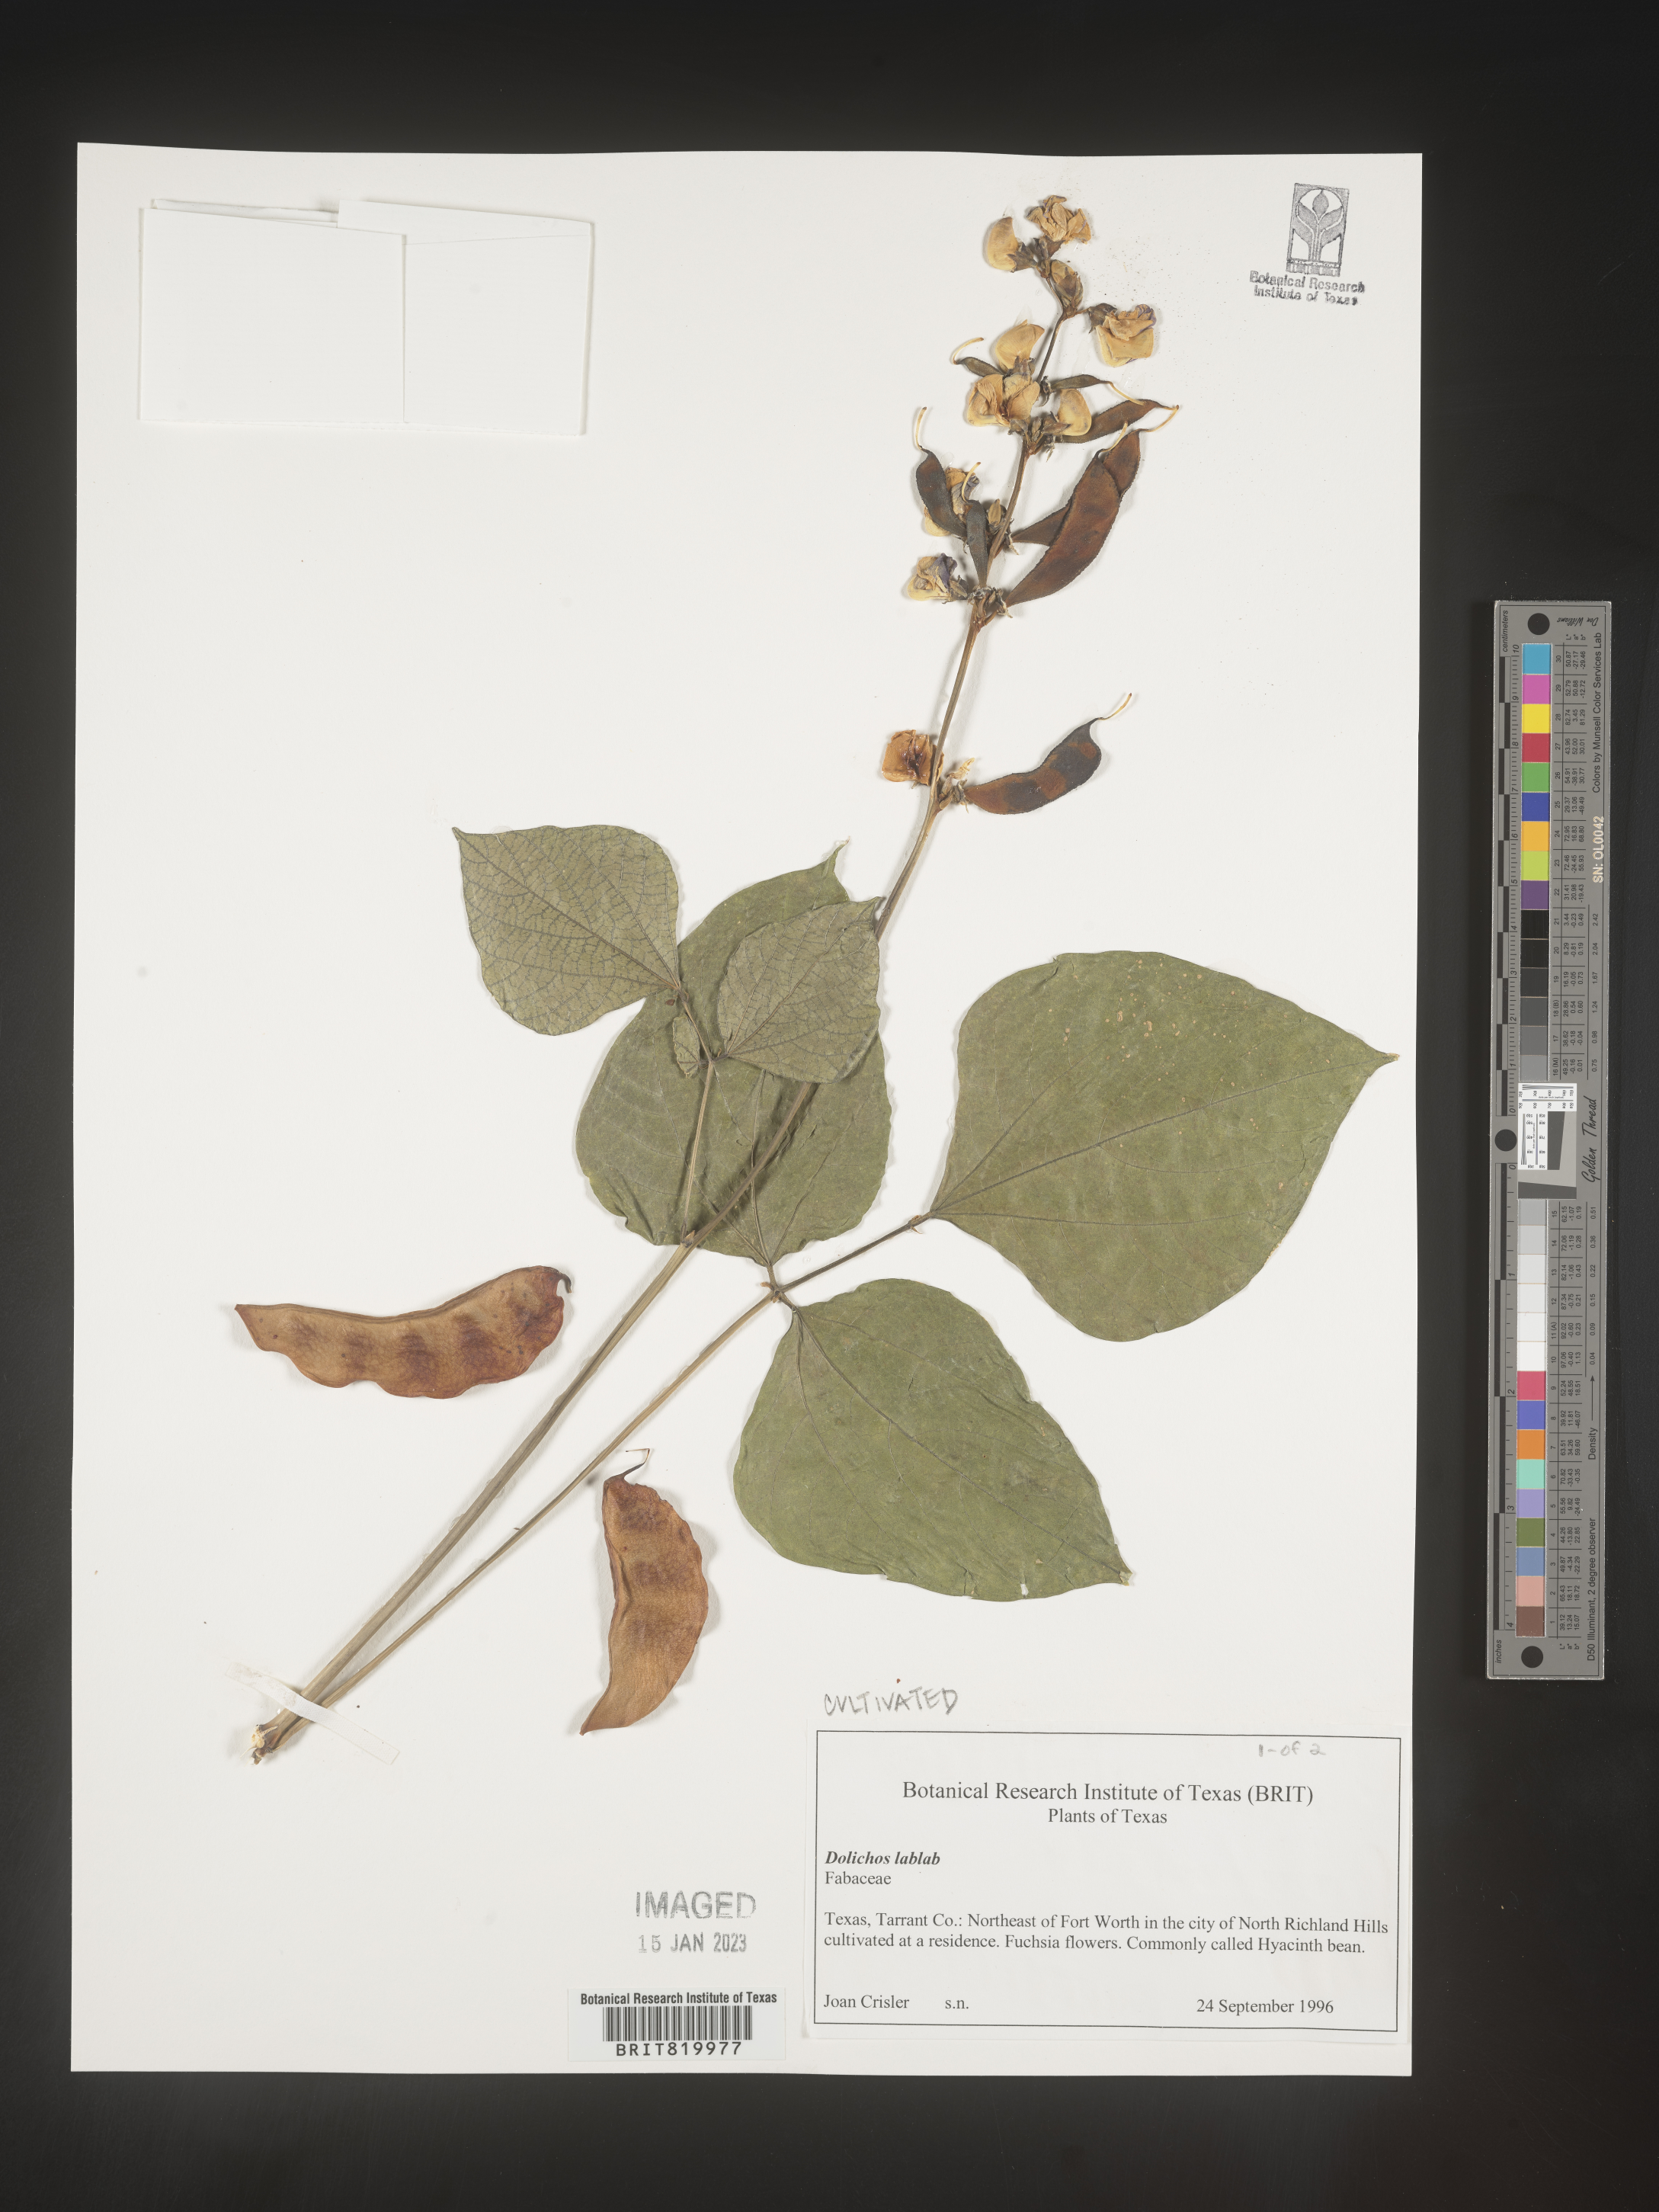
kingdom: Plantae
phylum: Tracheophyta
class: Magnoliopsida
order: Fabales
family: Fabaceae
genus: Dolichos
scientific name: Dolichos
